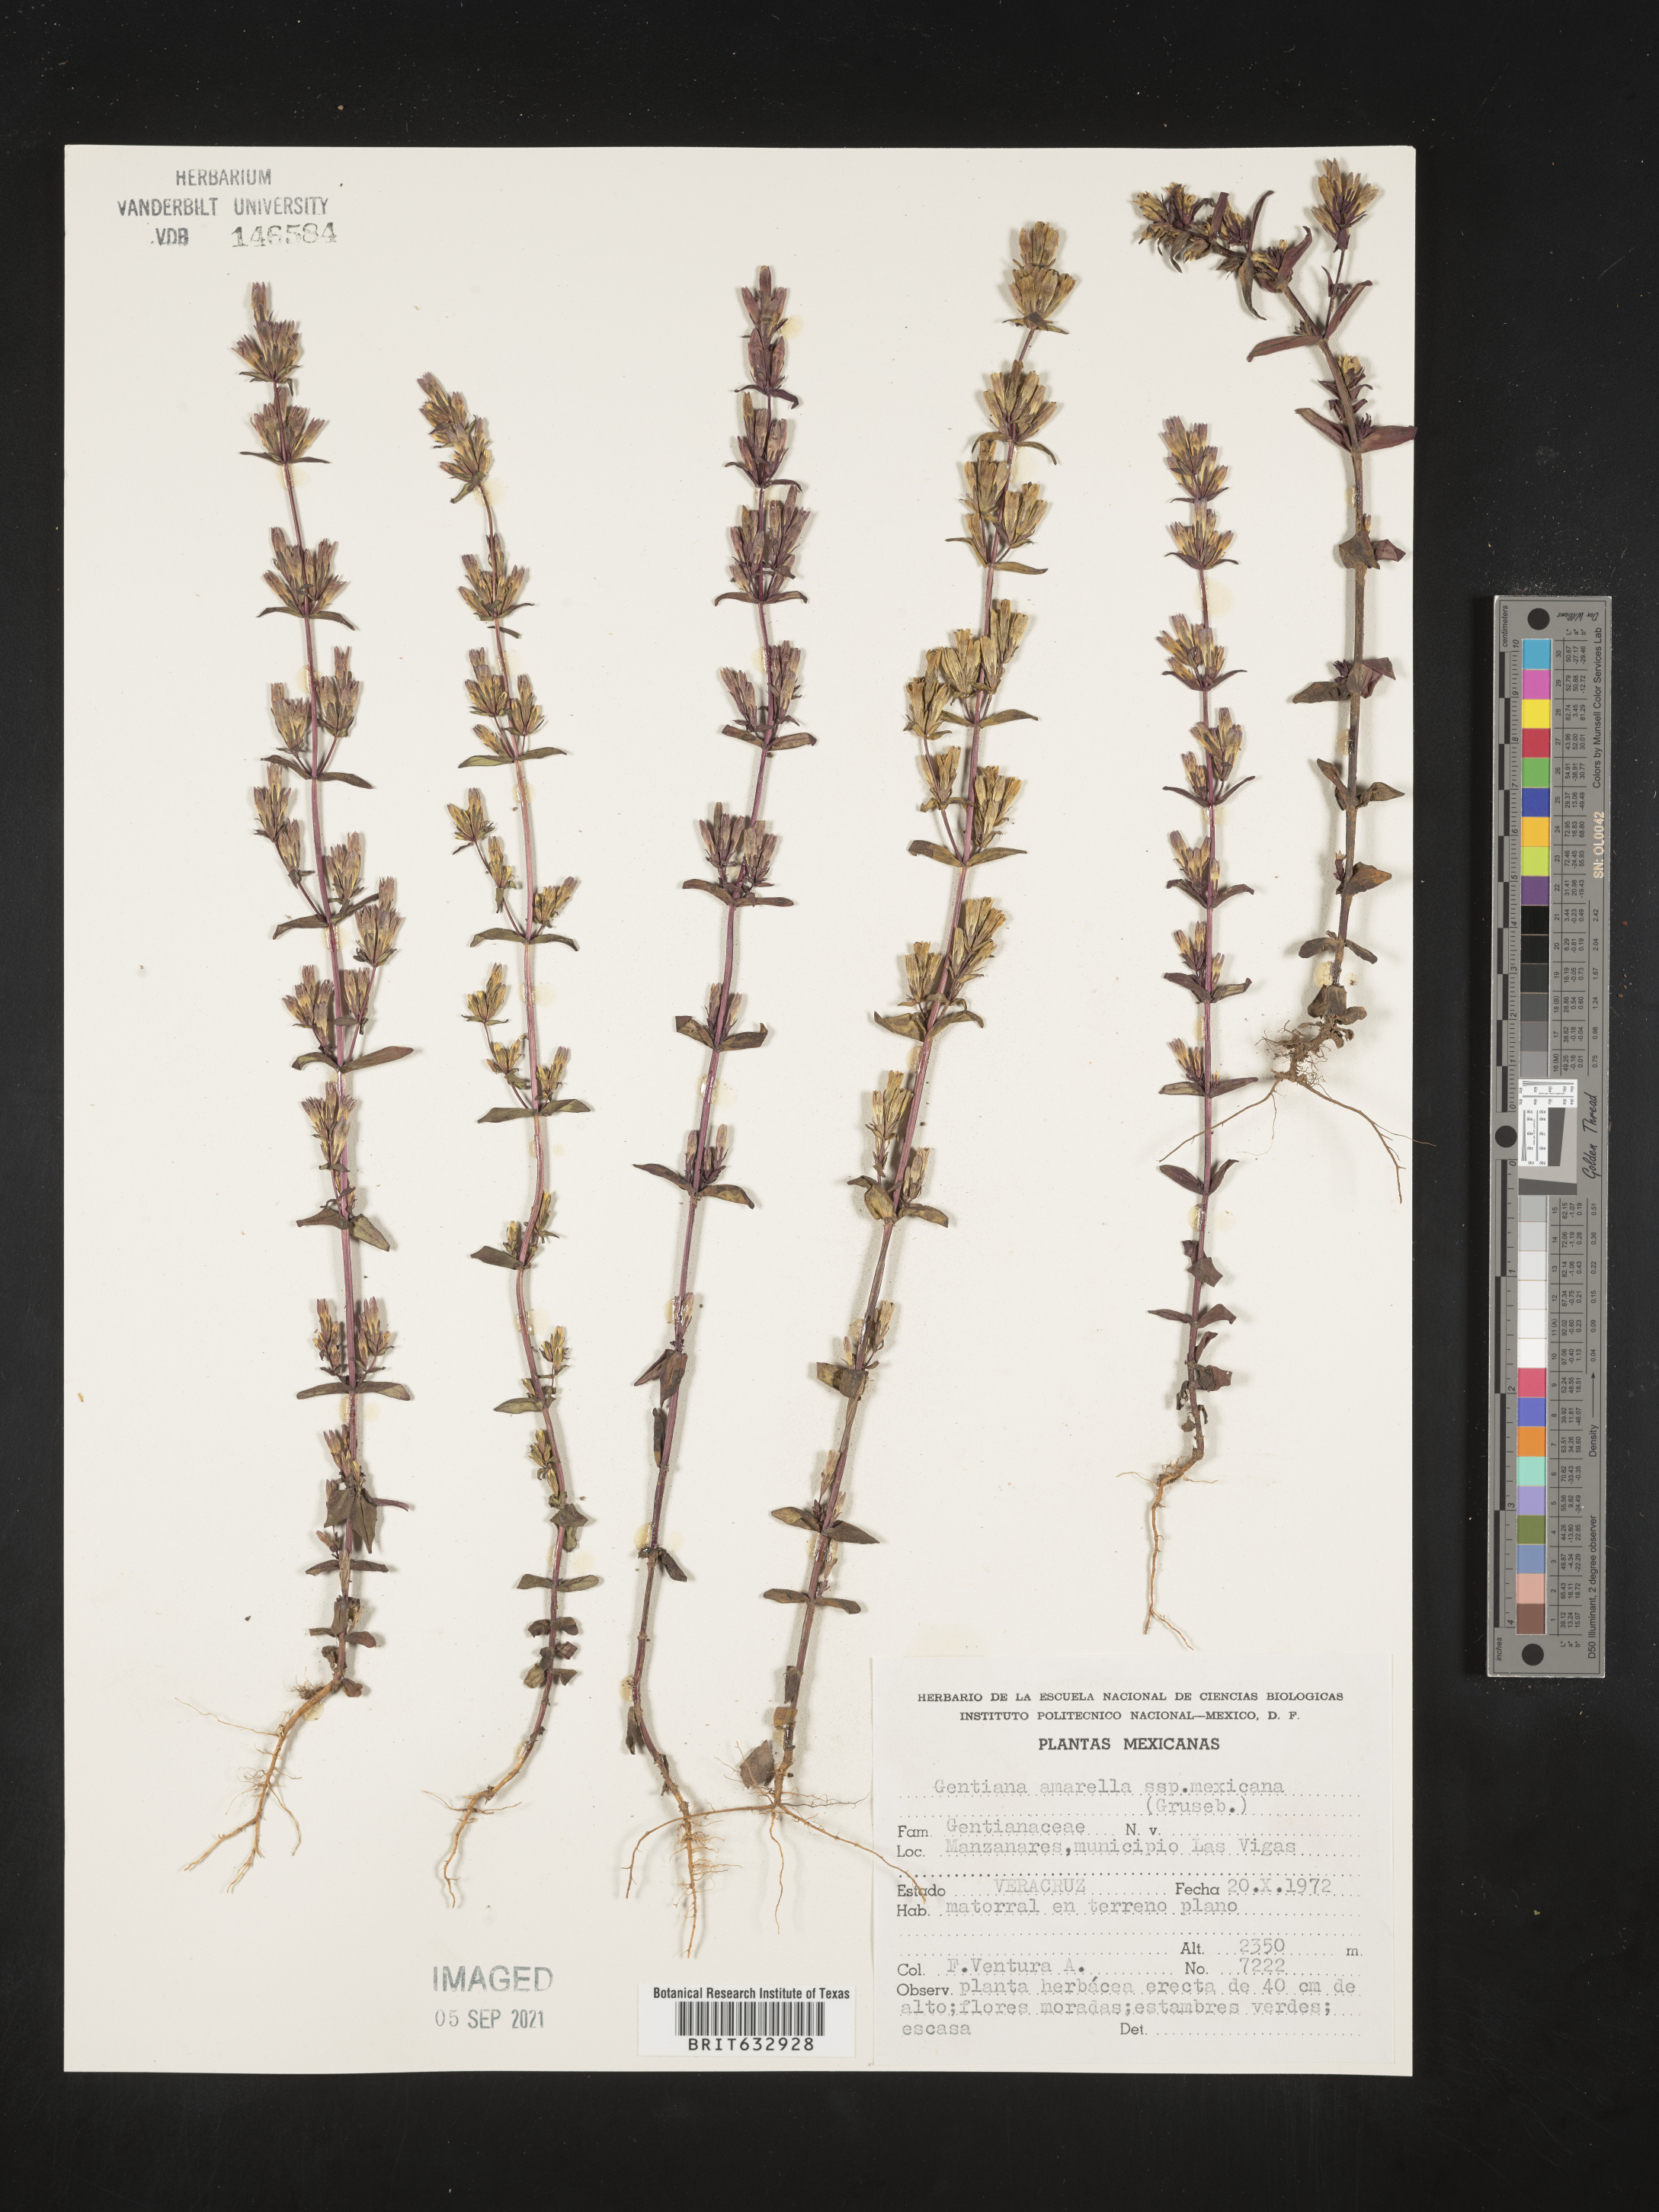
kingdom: Plantae
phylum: Tracheophyta
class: Magnoliopsida
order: Gentianales
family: Gentianaceae
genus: Gentiana
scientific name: Gentiana
